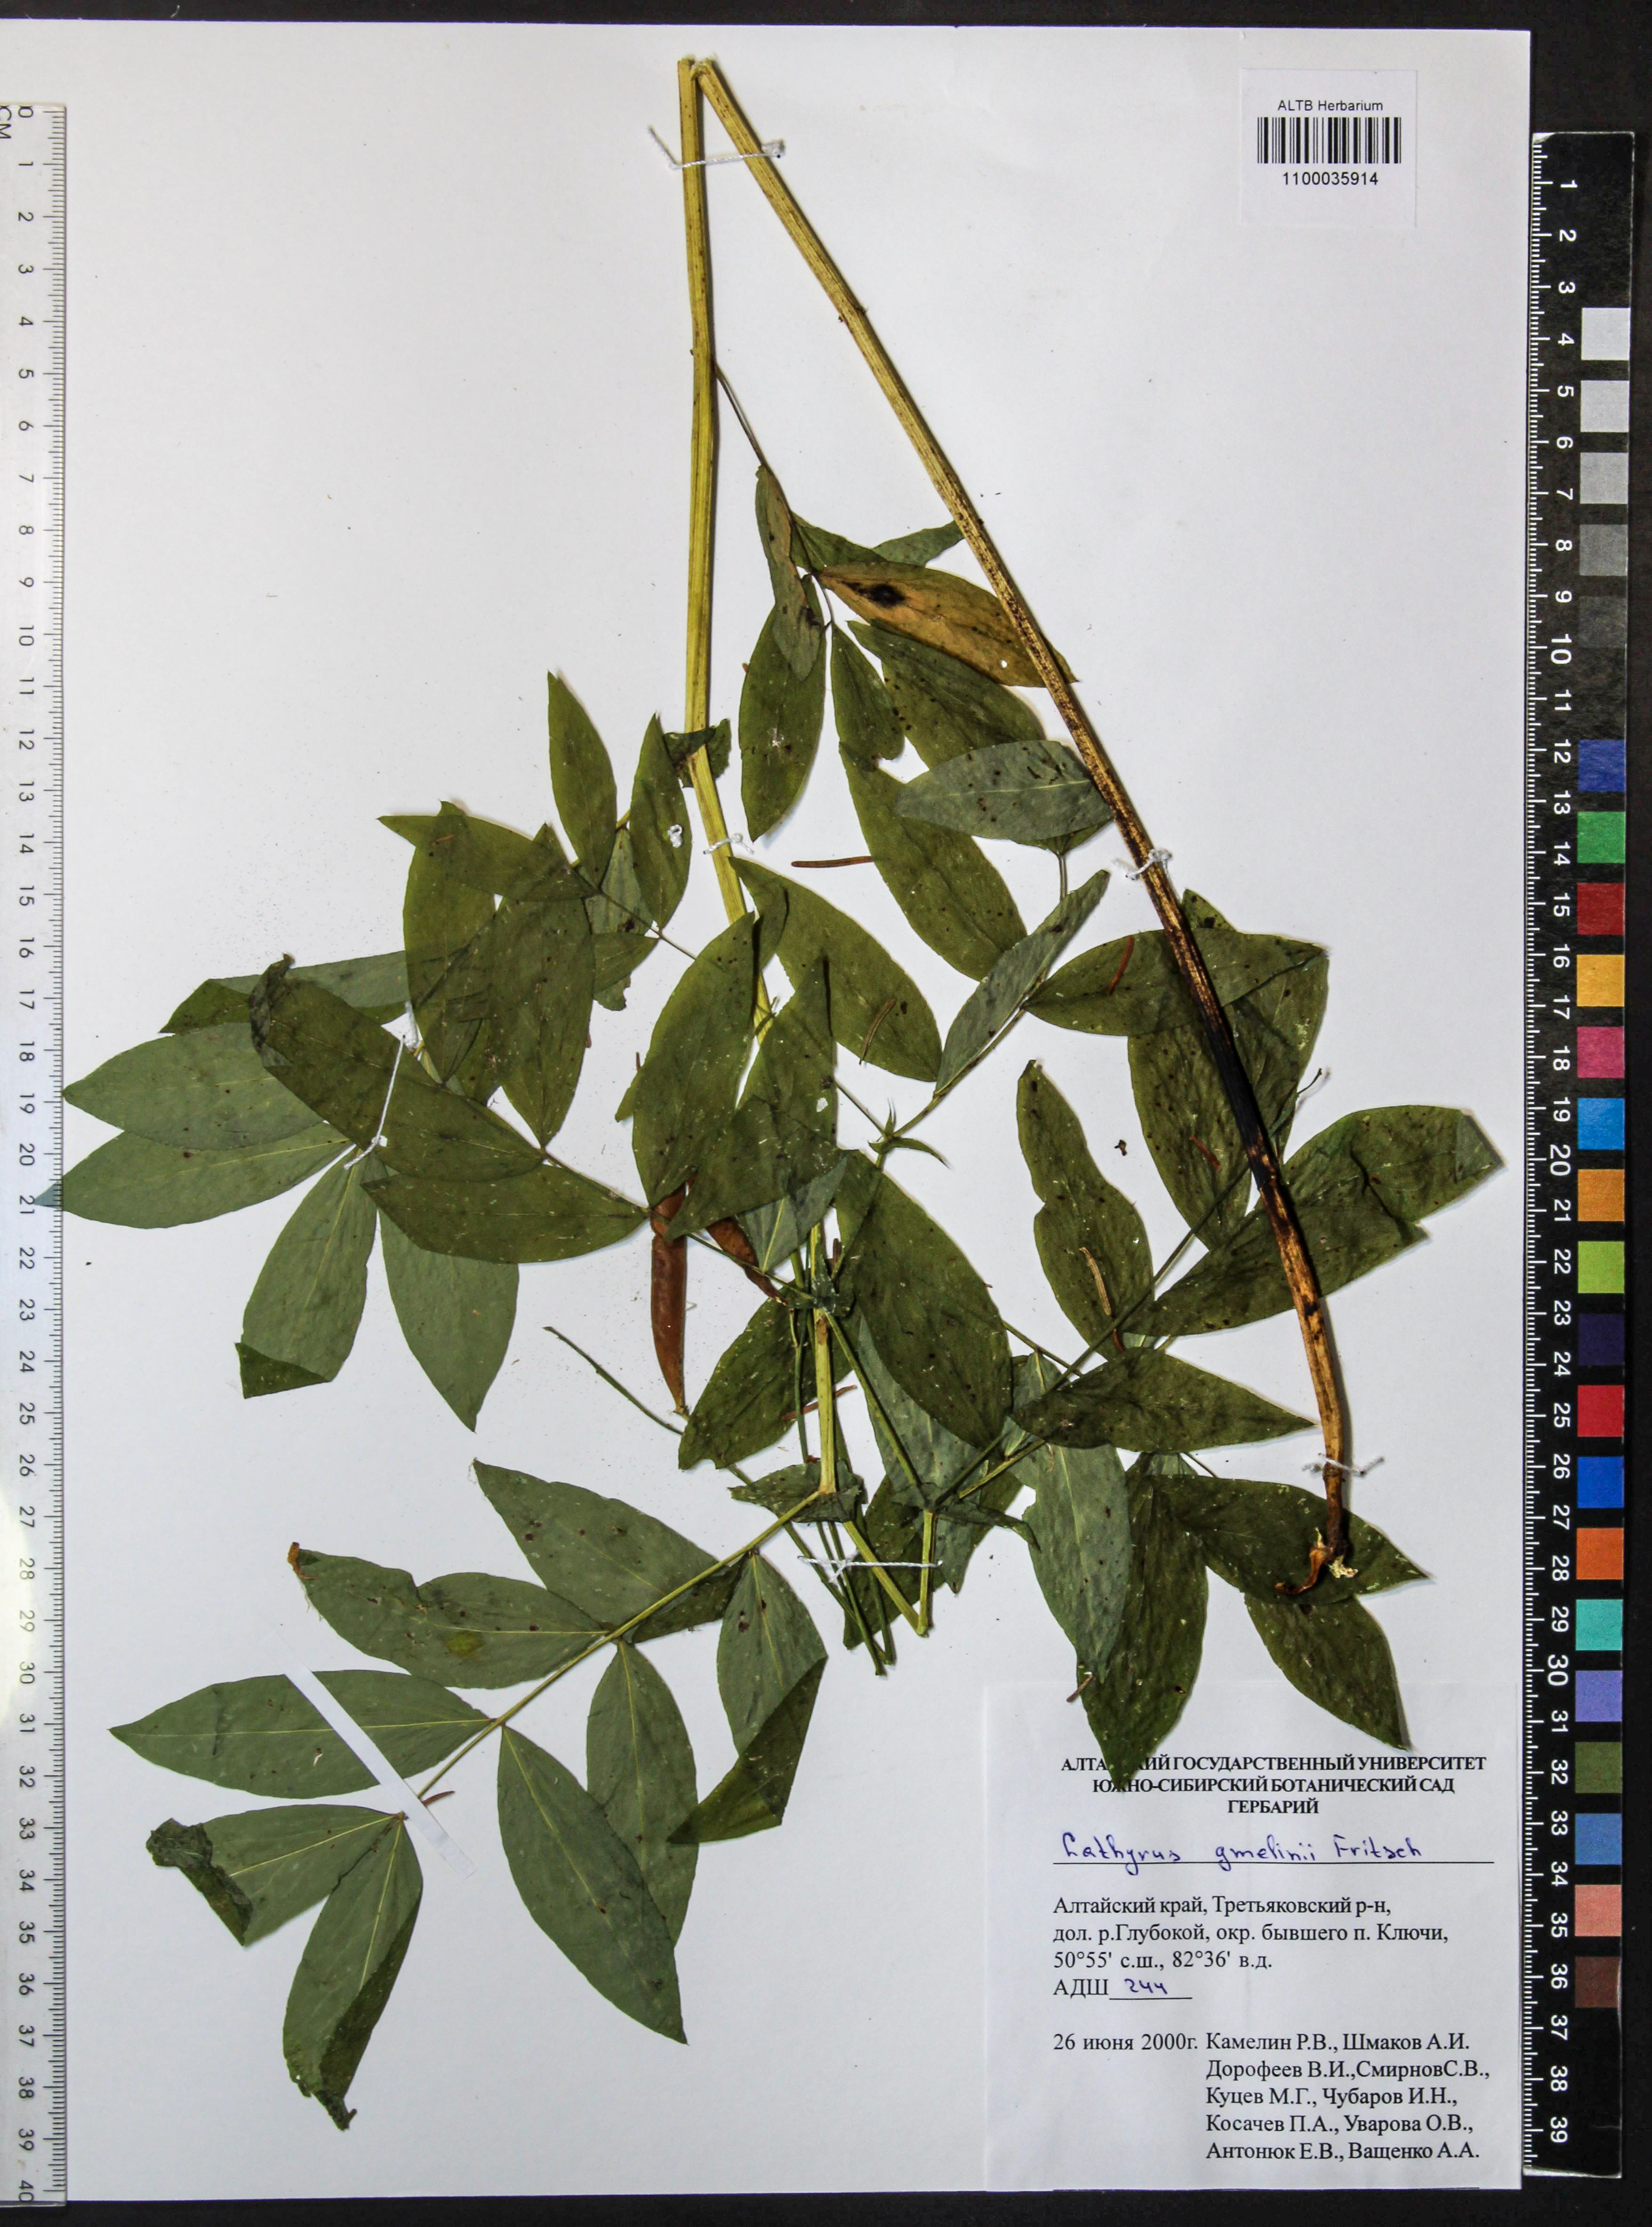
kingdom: Plantae
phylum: Tracheophyta
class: Magnoliopsida
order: Fabales
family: Fabaceae
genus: Lathyrus
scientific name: Lathyrus gmelinii
